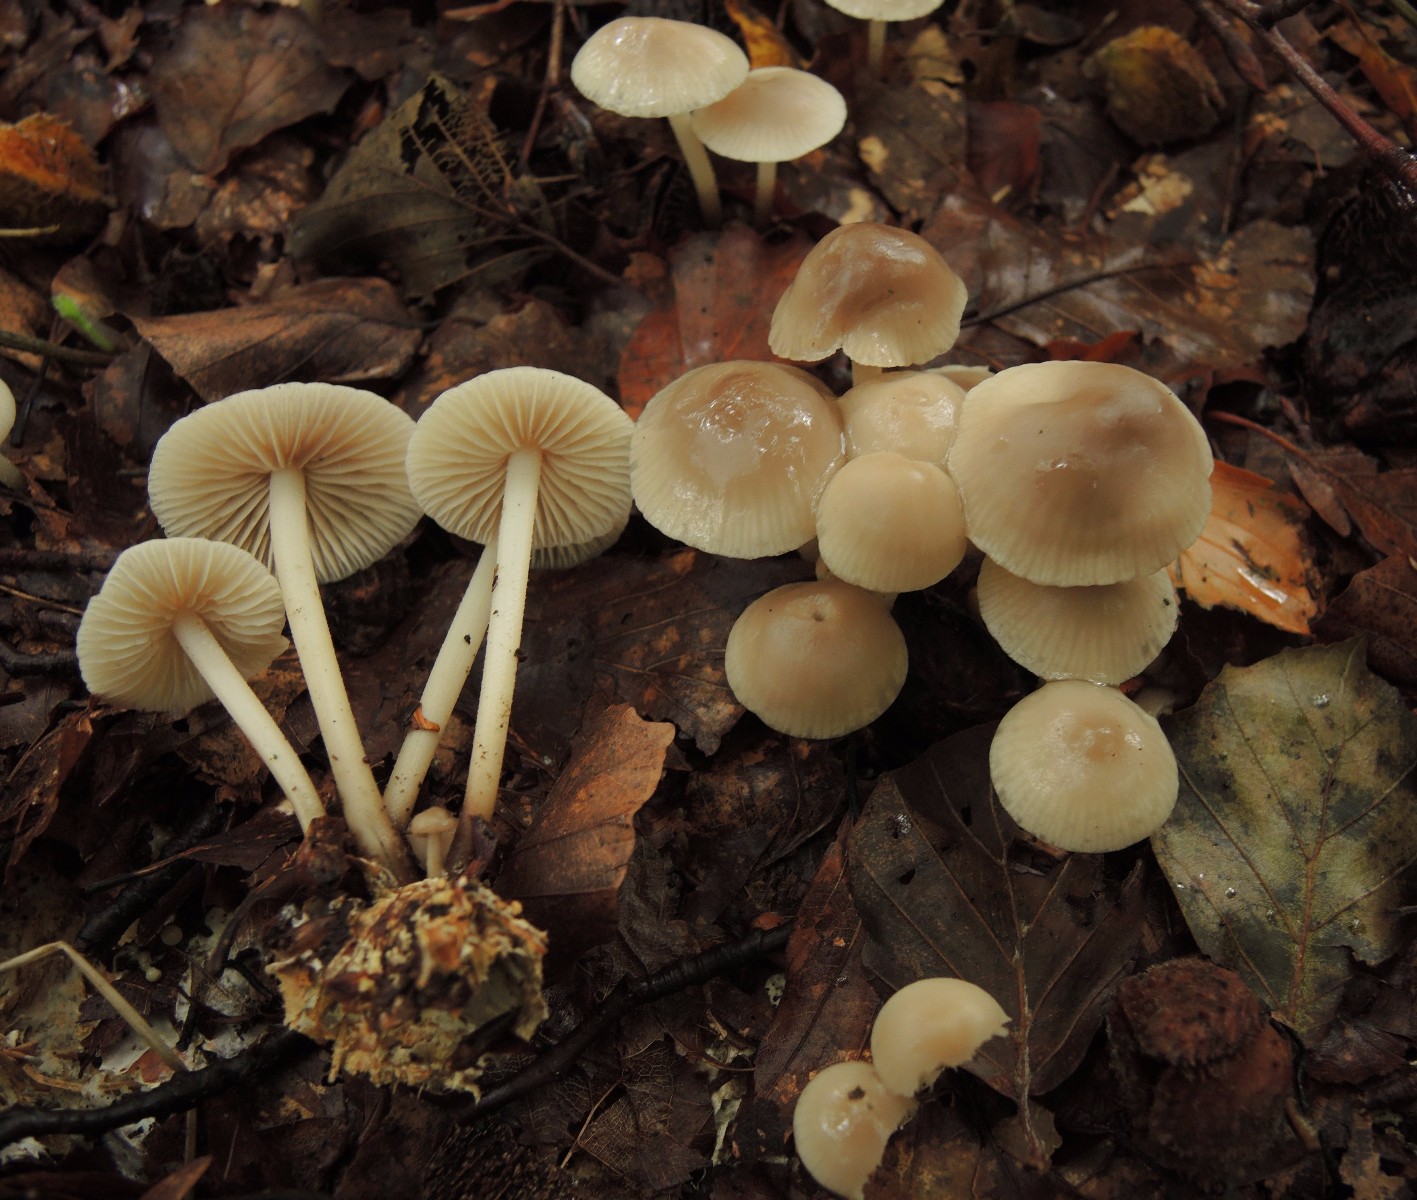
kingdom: Fungi
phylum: Basidiomycota
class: Agaricomycetes
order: Agaricales
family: Marasmiaceae
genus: Marasmius
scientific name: Marasmius wynneae
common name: hvælvet bruskhat
